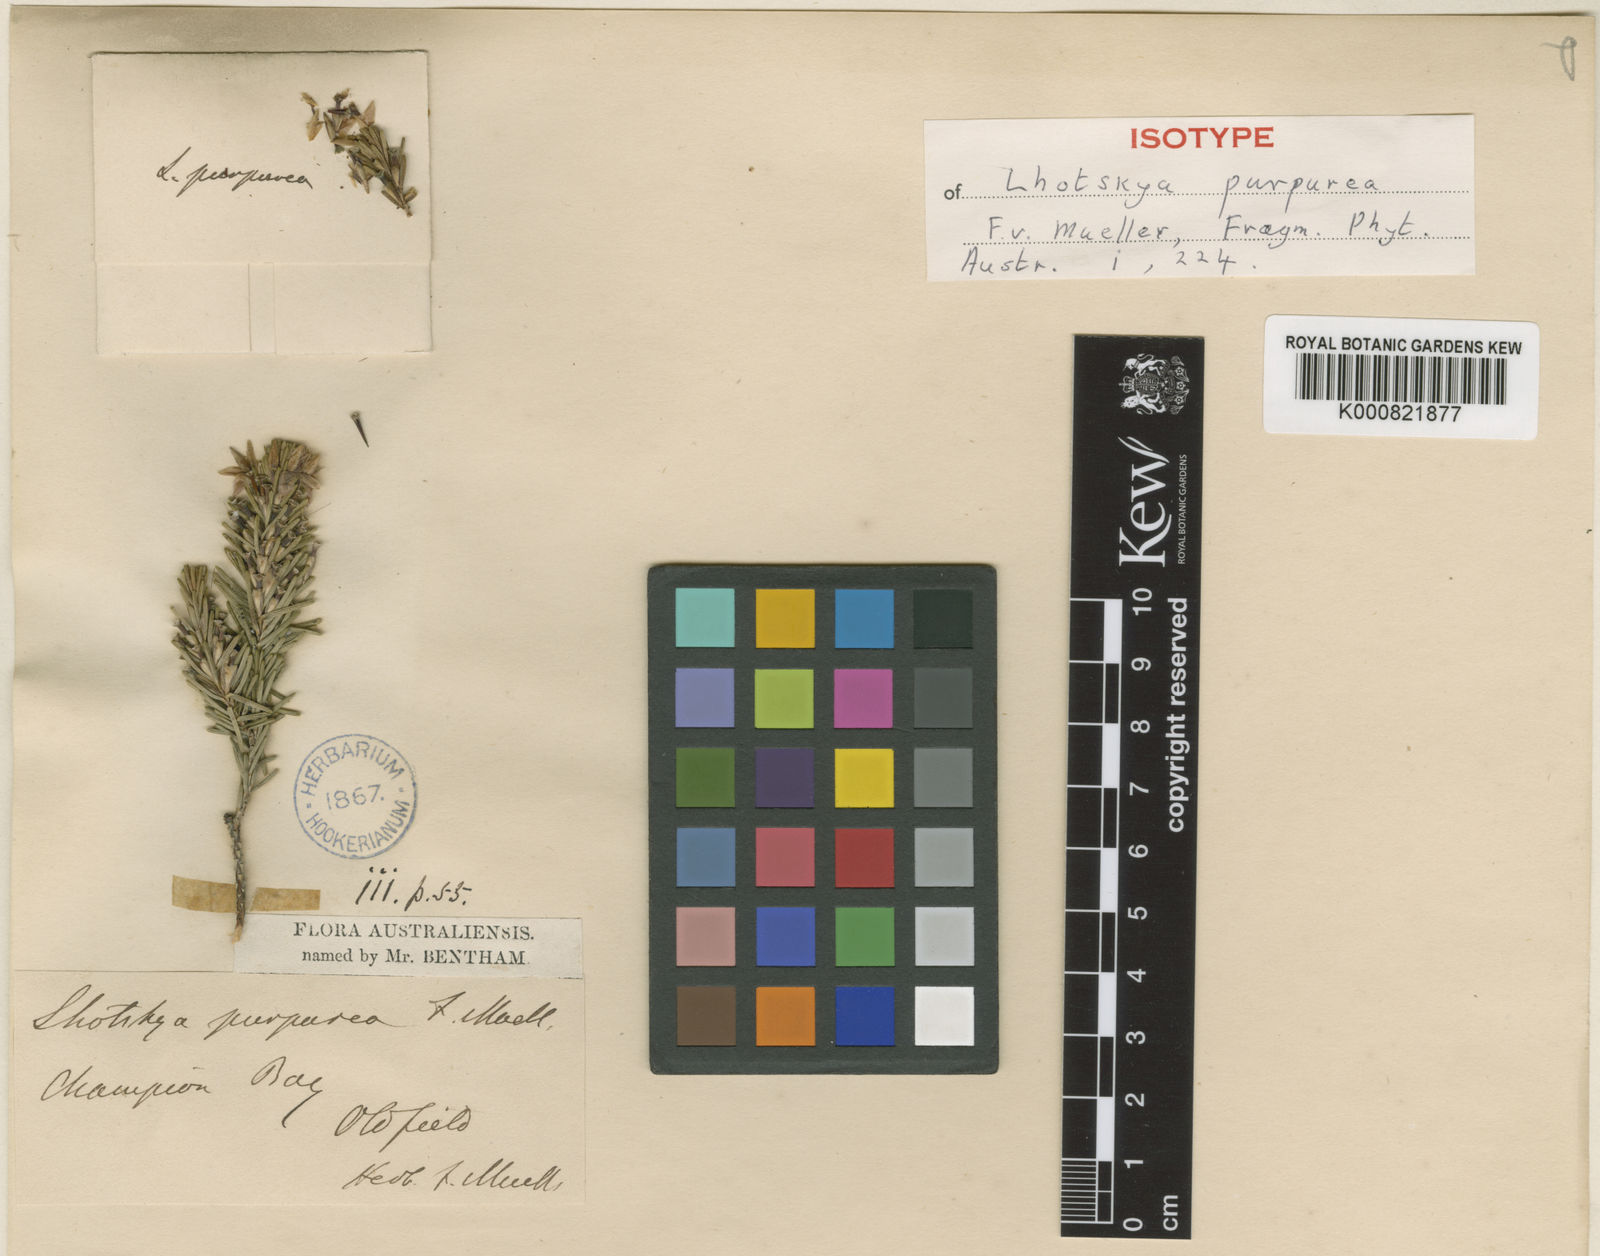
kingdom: Plantae
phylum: Tracheophyta
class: Magnoliopsida
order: Myrtales
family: Myrtaceae
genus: Calytrix
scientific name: Calytrix purpurea
